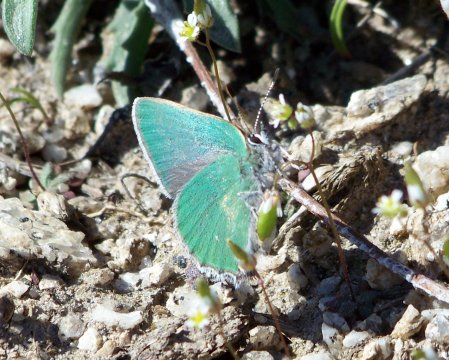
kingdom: Animalia
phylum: Arthropoda
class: Insecta
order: Lepidoptera
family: Lycaenidae
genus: Callophrys
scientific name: Callophrys affinis
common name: Western Green Hairstreak
